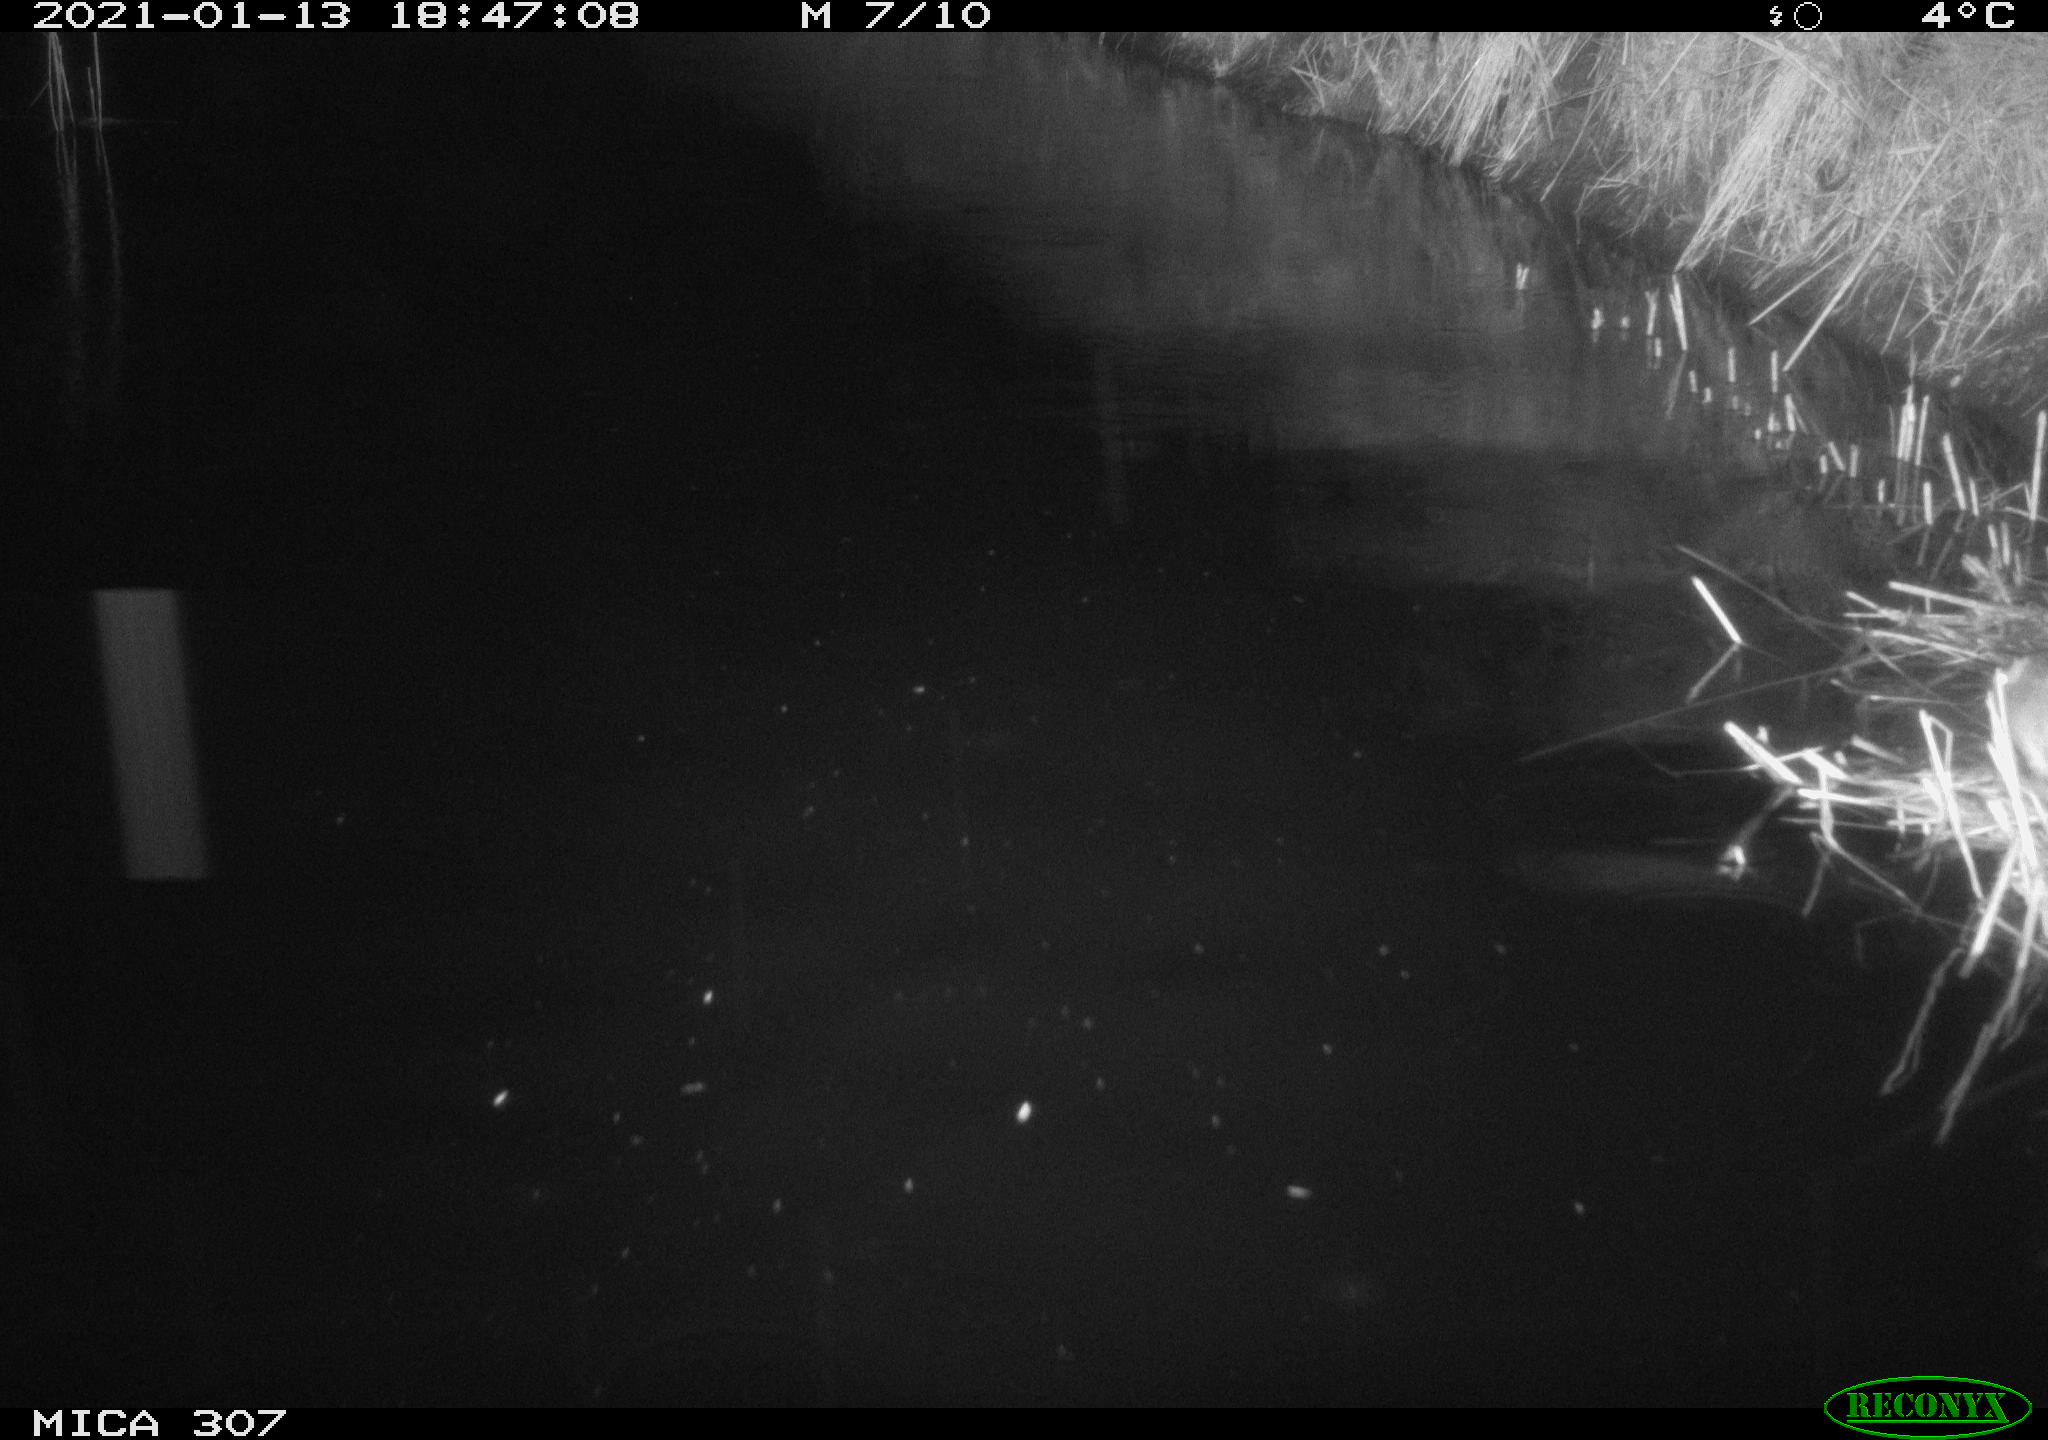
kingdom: Animalia
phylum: Chordata
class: Mammalia
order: Rodentia
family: Muridae
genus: Rattus
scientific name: Rattus norvegicus
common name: Brown rat
